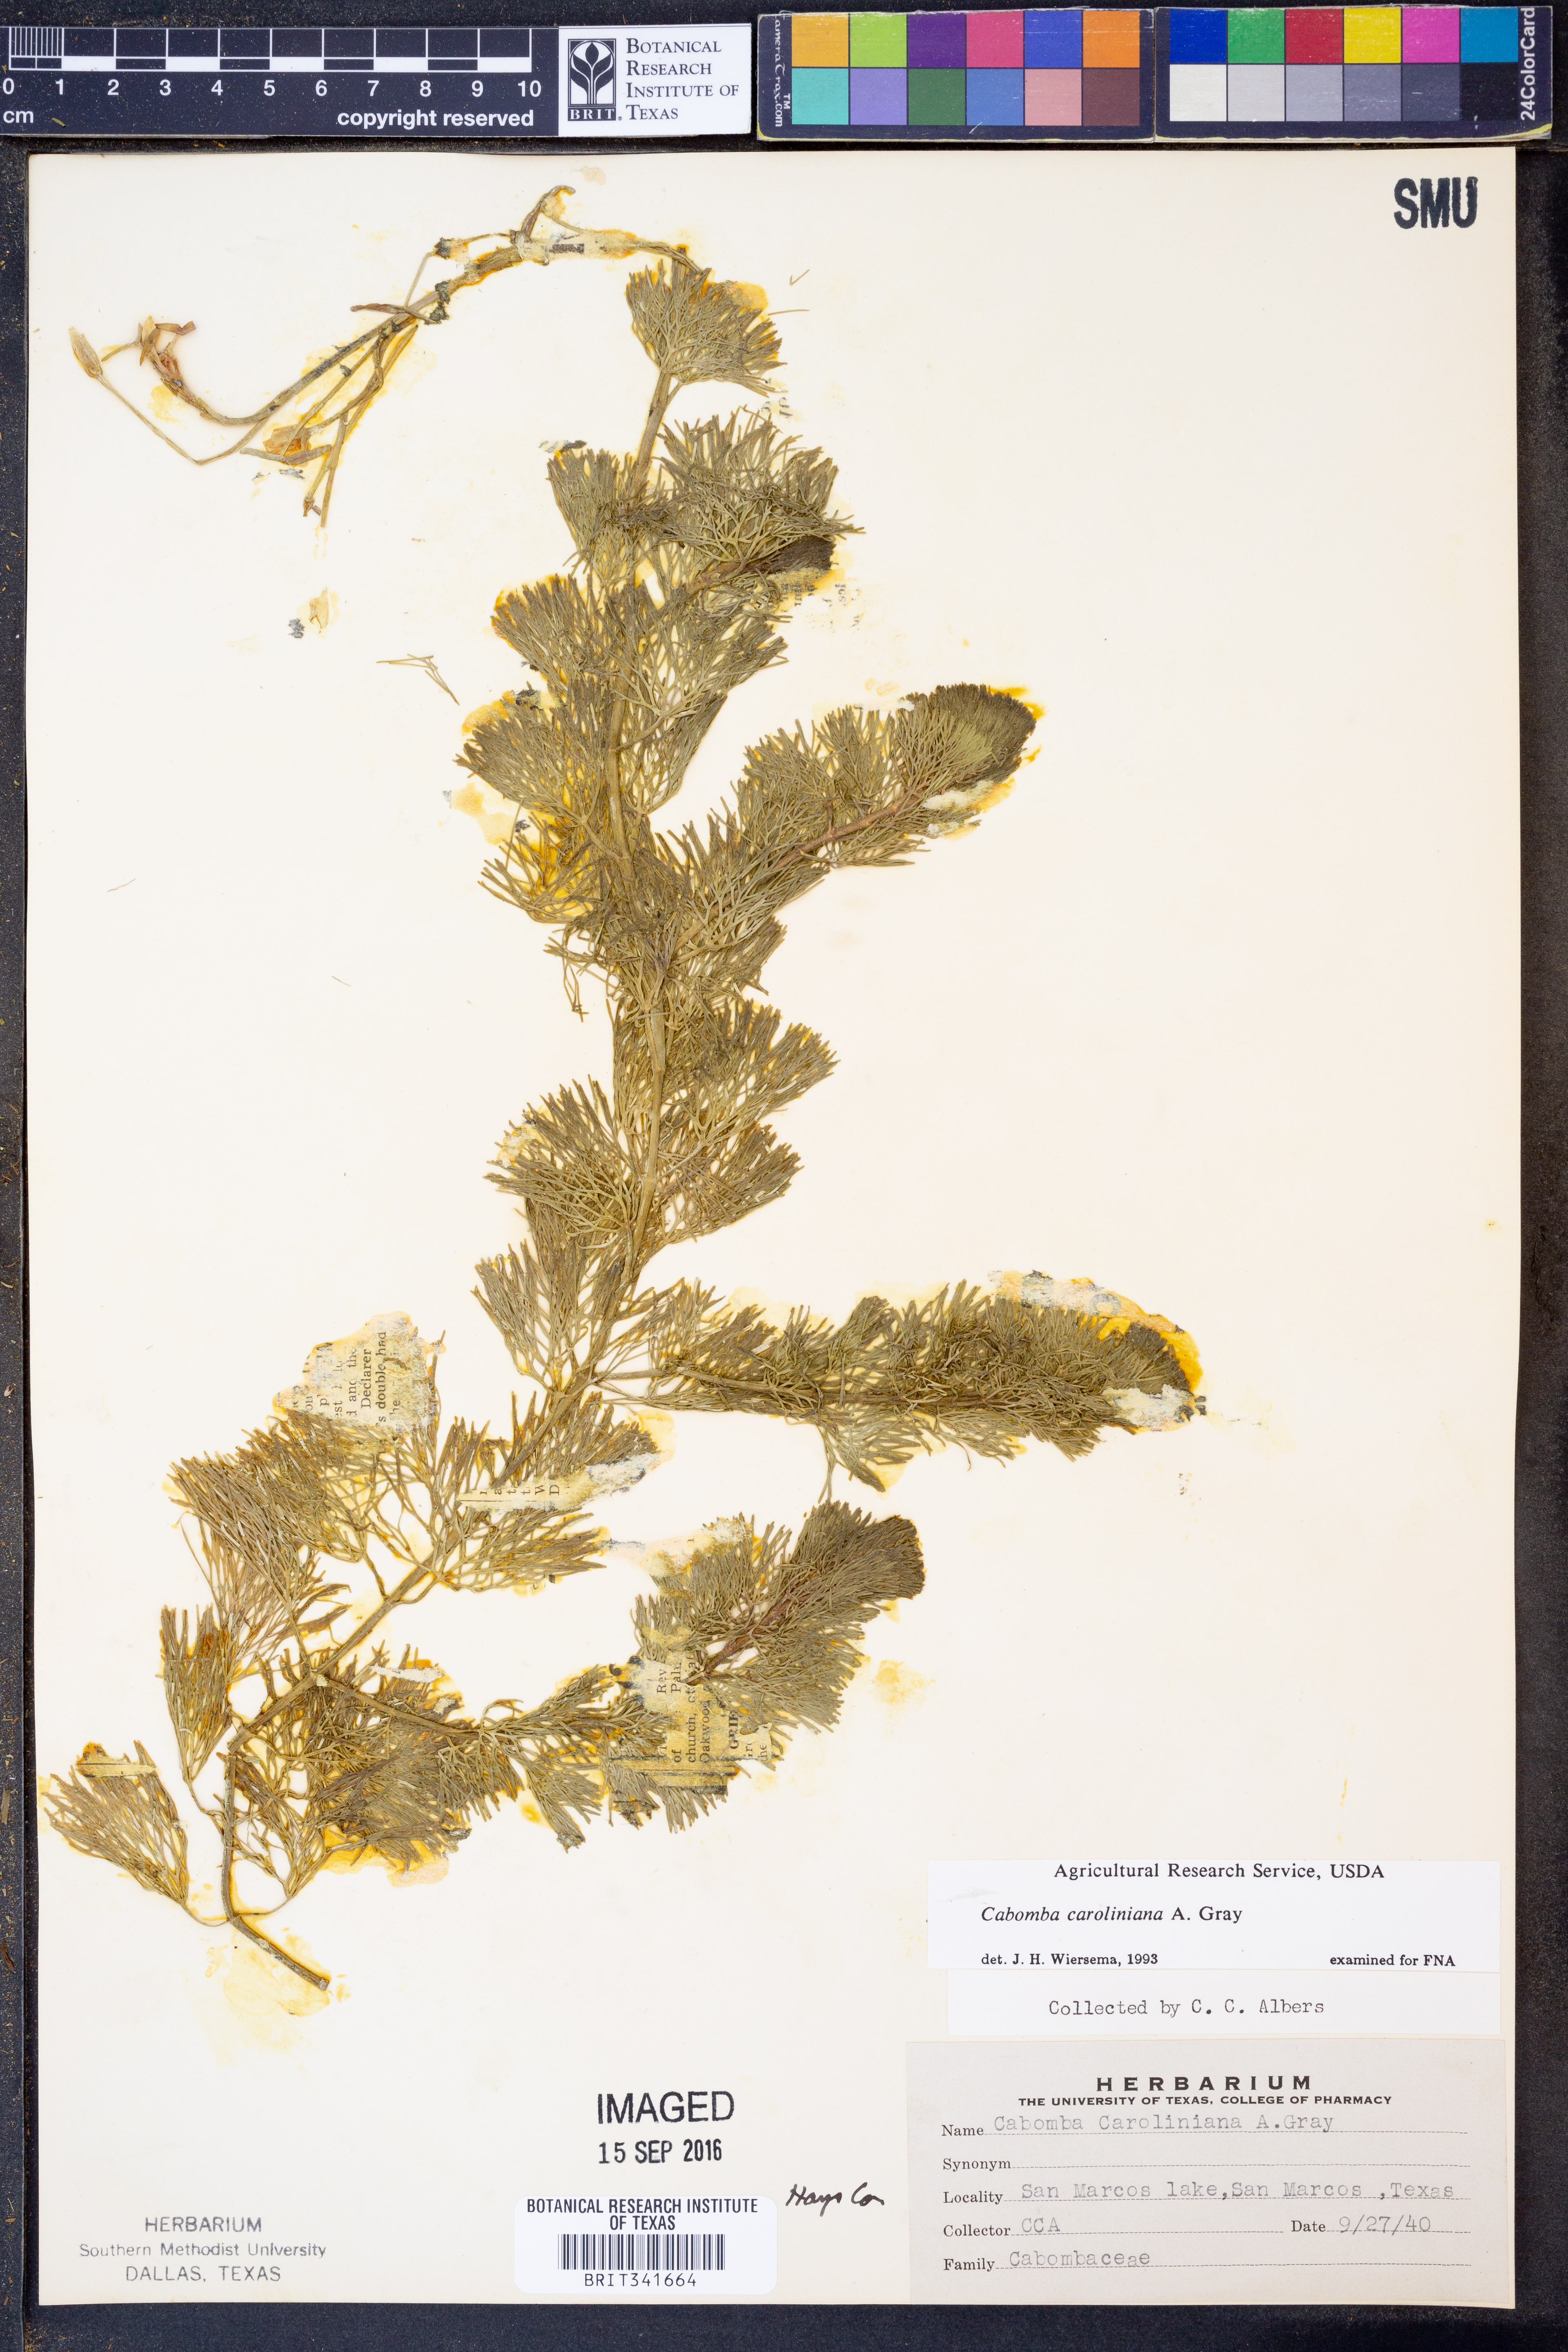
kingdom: Plantae
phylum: Tracheophyta
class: Magnoliopsida
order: Nymphaeales
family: Cabombaceae
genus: Cabomba
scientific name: Cabomba caroliniana
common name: Fanwort
